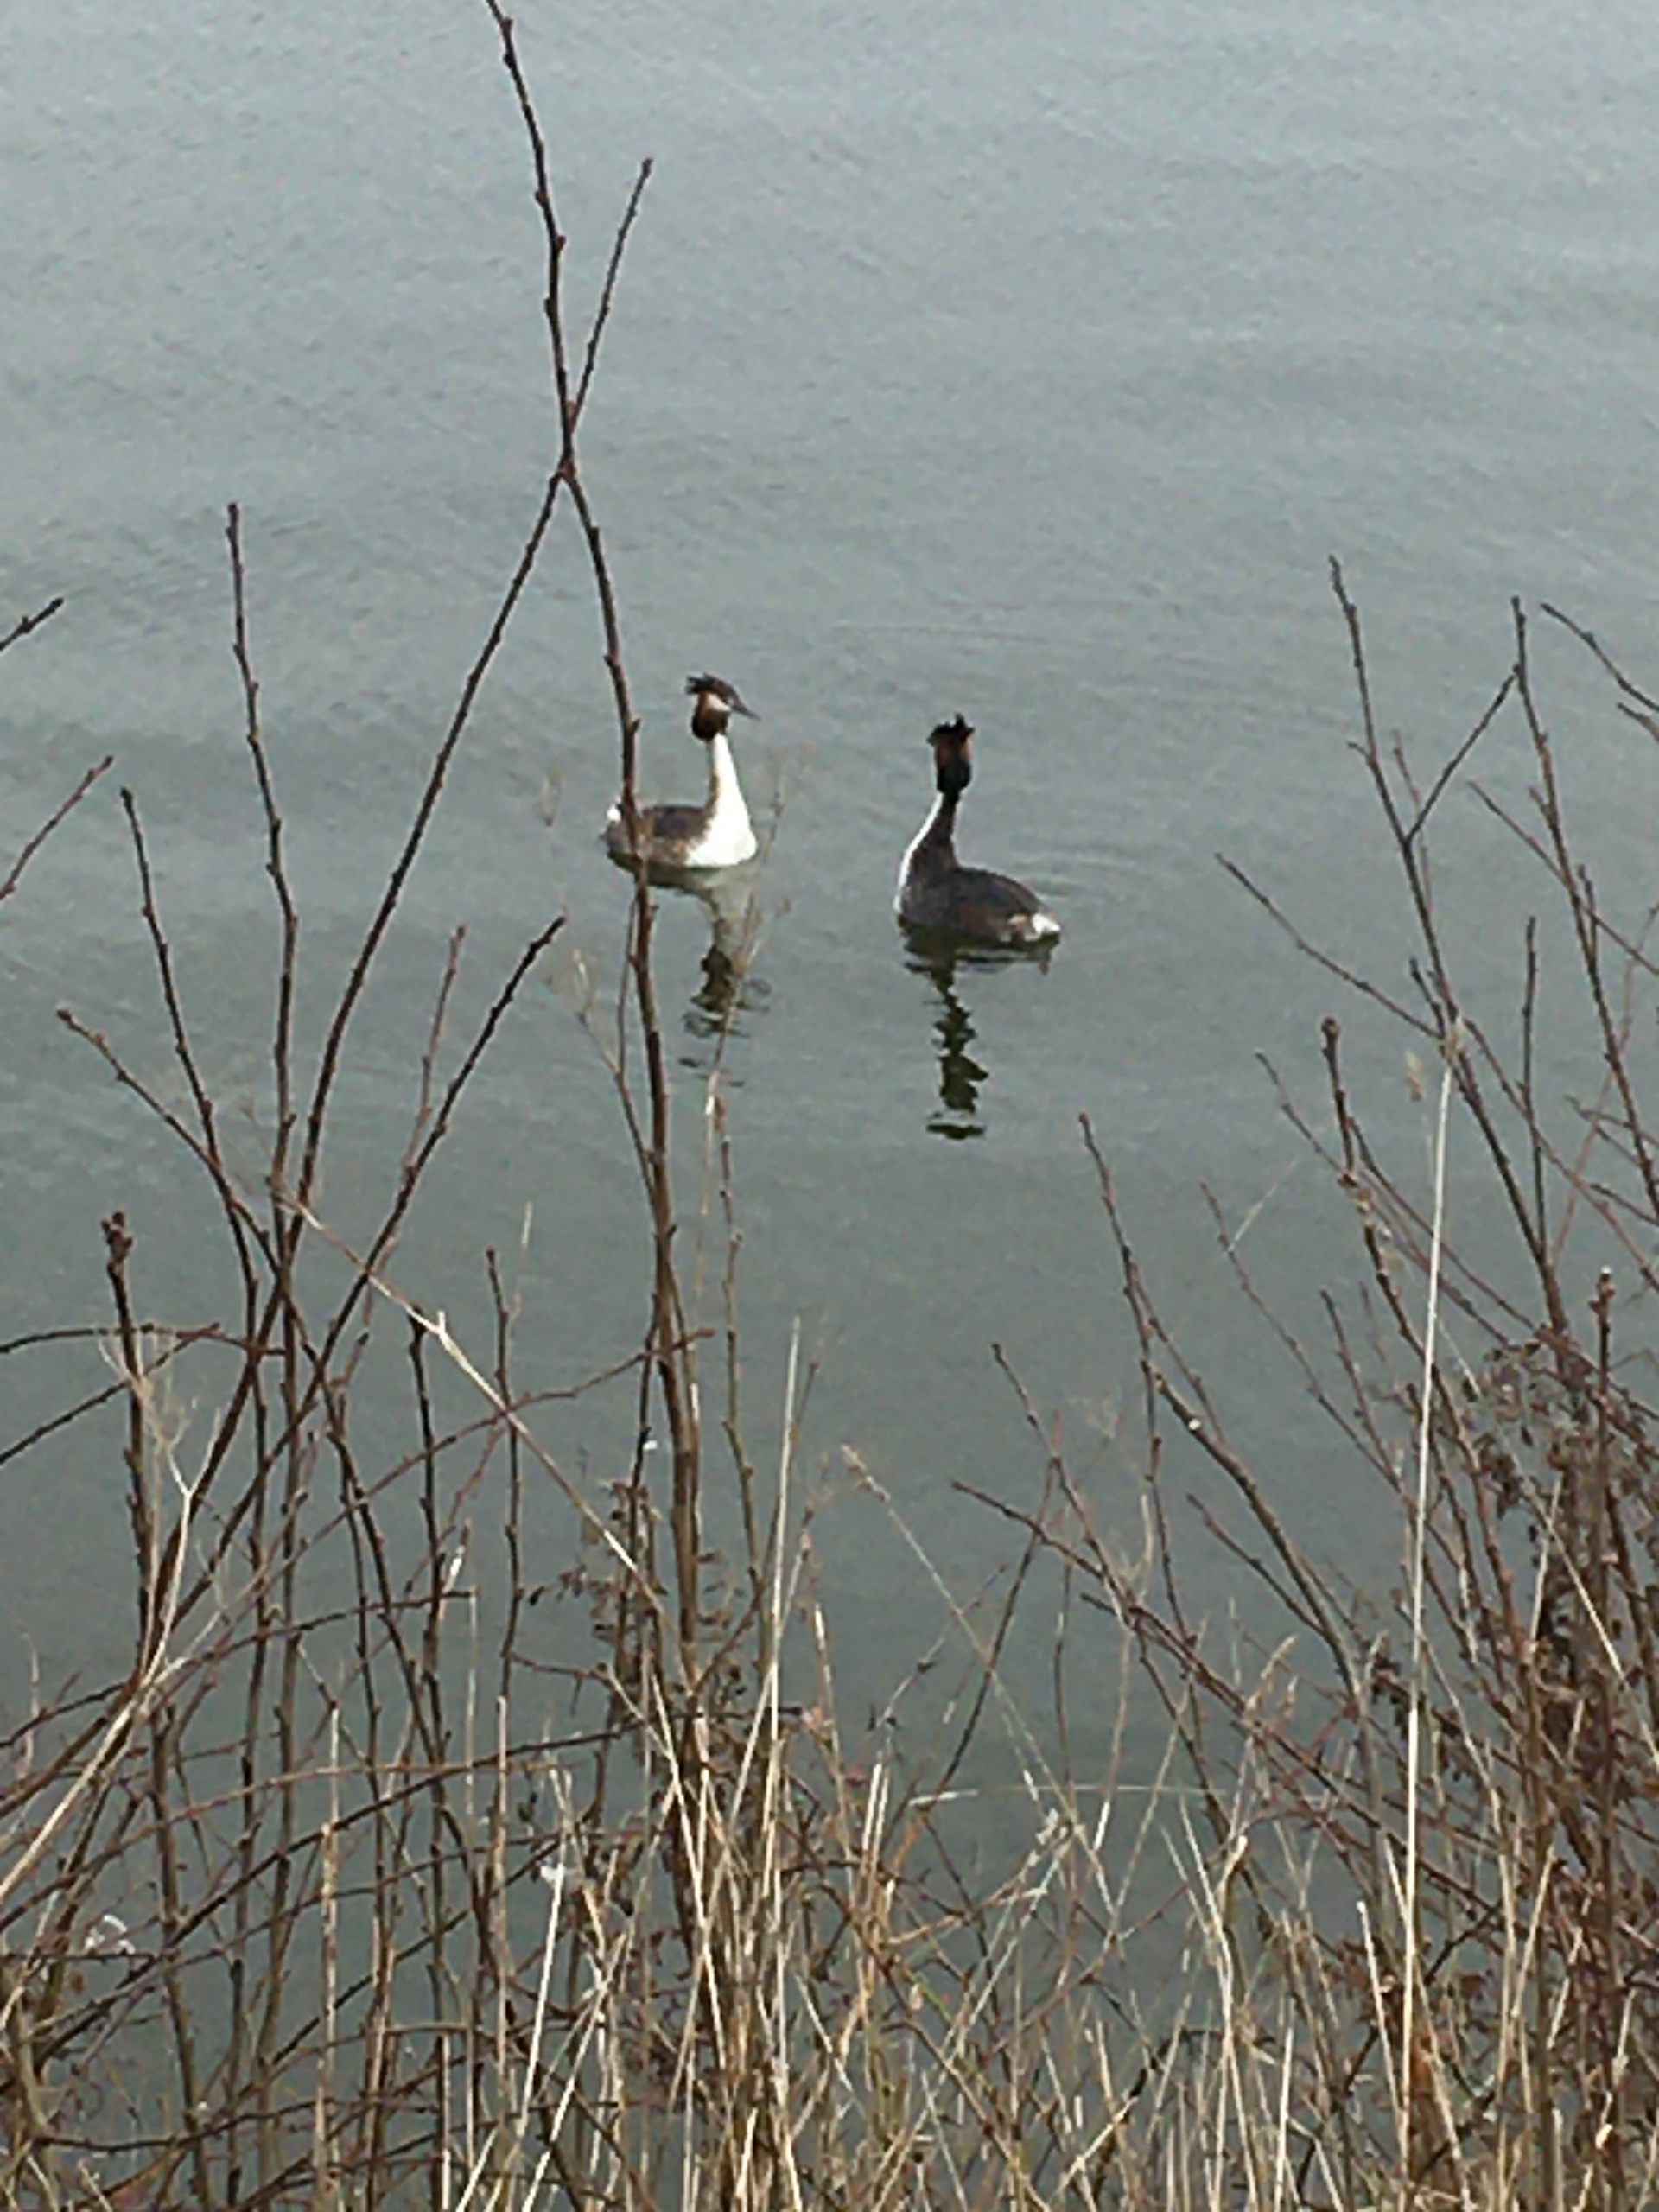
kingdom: Animalia
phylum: Chordata
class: Aves
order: Podicipediformes
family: Podicipedidae
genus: Podiceps
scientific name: Podiceps cristatus
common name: Toppet lappedykker
